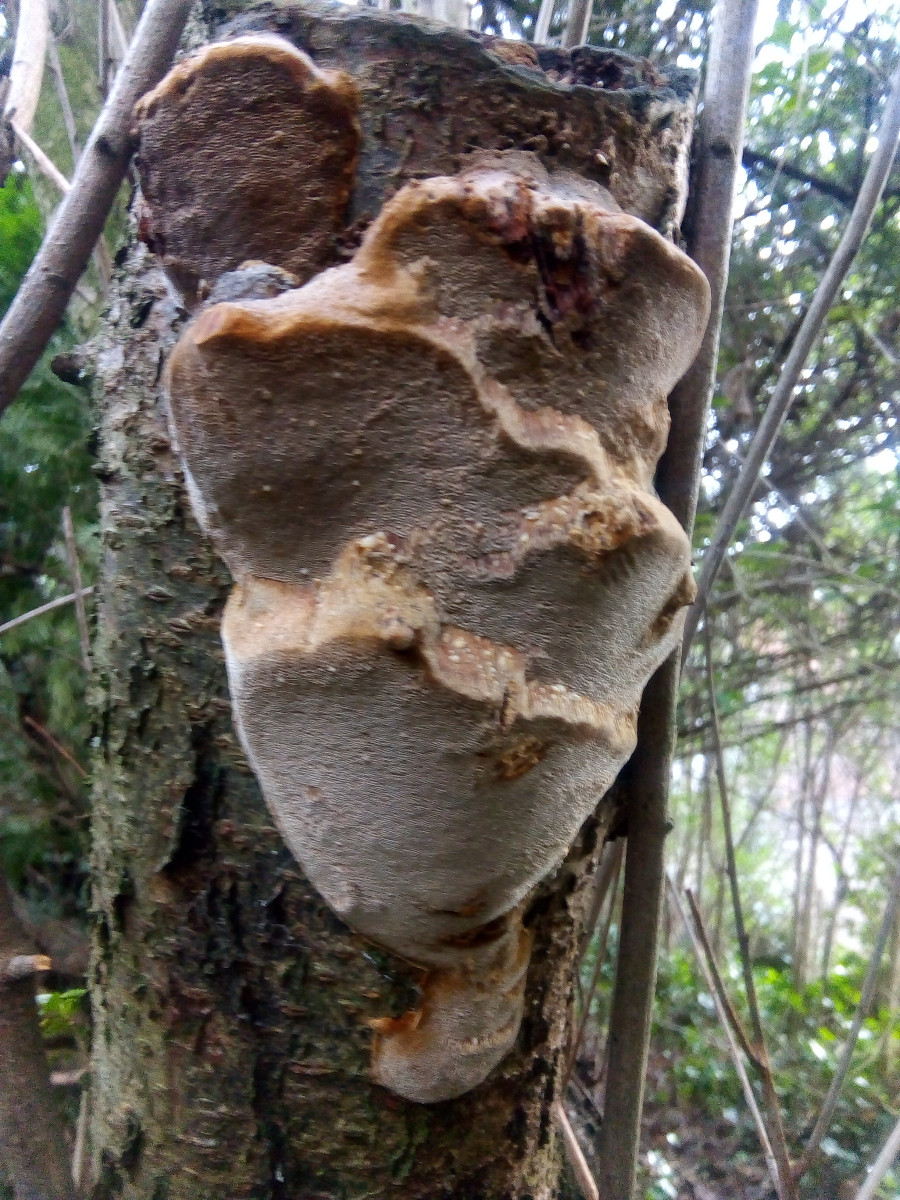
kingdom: Fungi
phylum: Basidiomycota
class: Agaricomycetes
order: Hymenochaetales
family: Hymenochaetaceae
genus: Phellinus
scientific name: Phellinus pomaceus
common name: blomme-ildporesvamp
